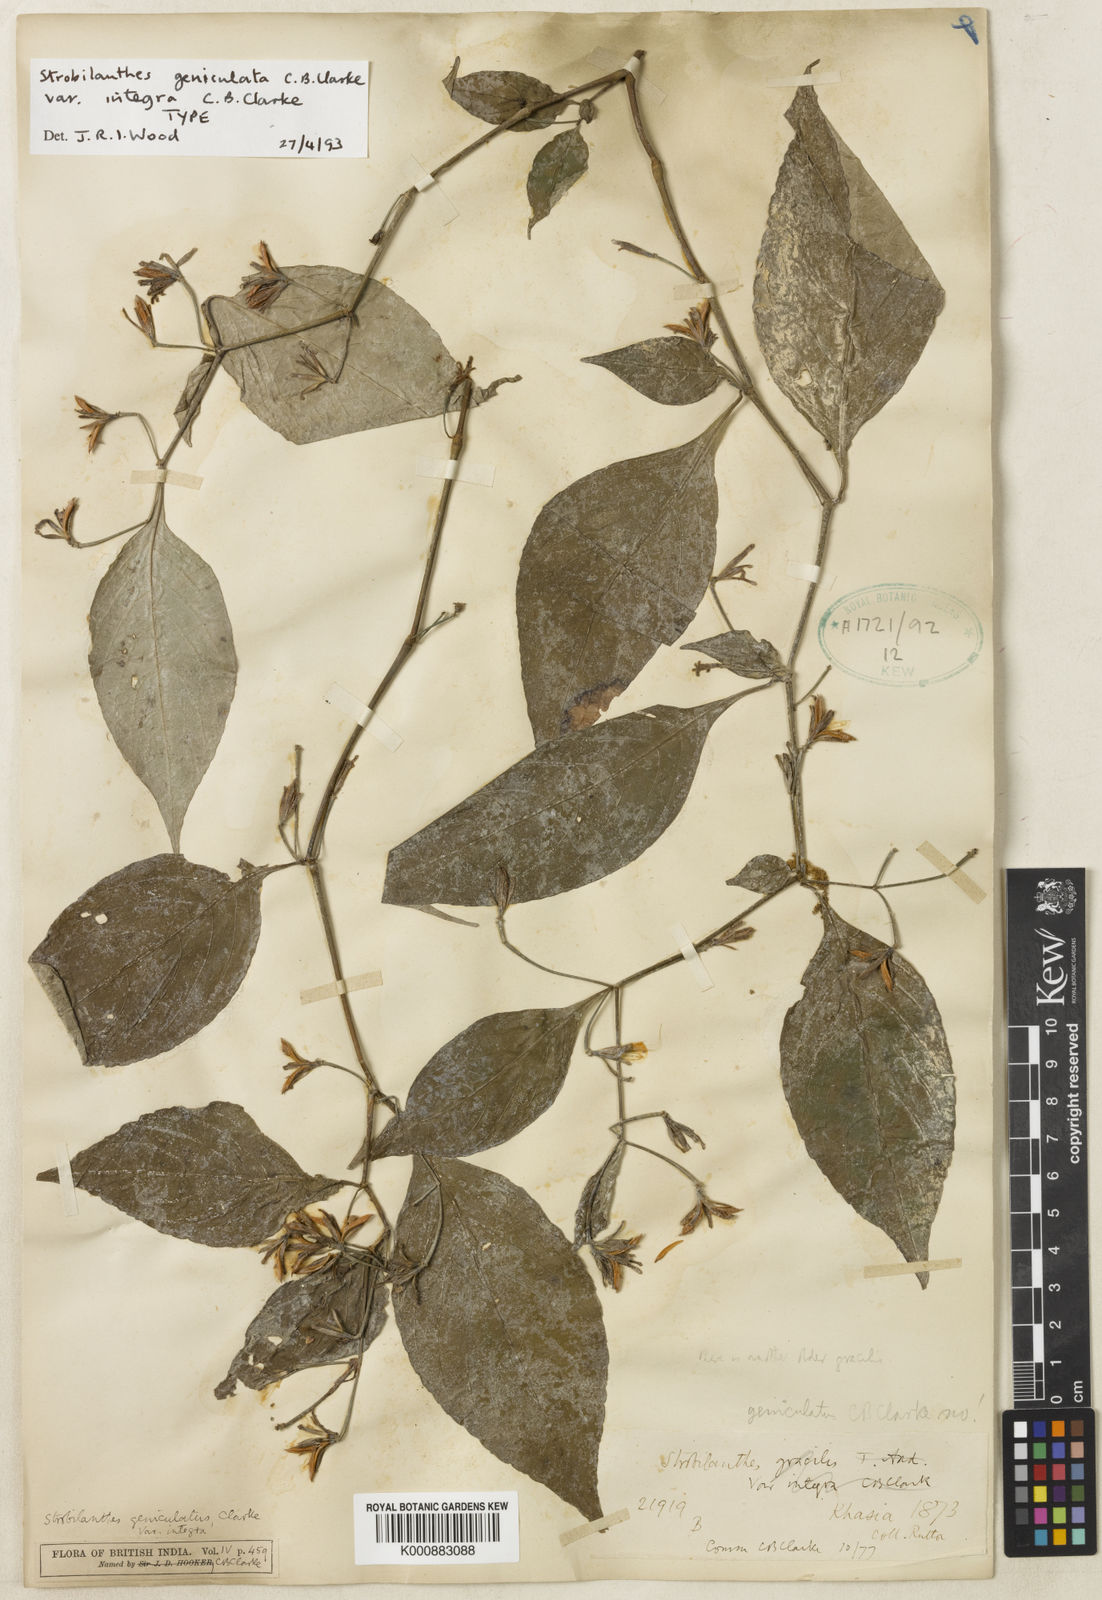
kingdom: Plantae
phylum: Tracheophyta
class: Magnoliopsida
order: Lamiales
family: Acanthaceae
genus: Strobilanthes
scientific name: Strobilanthes dimorphotricha
